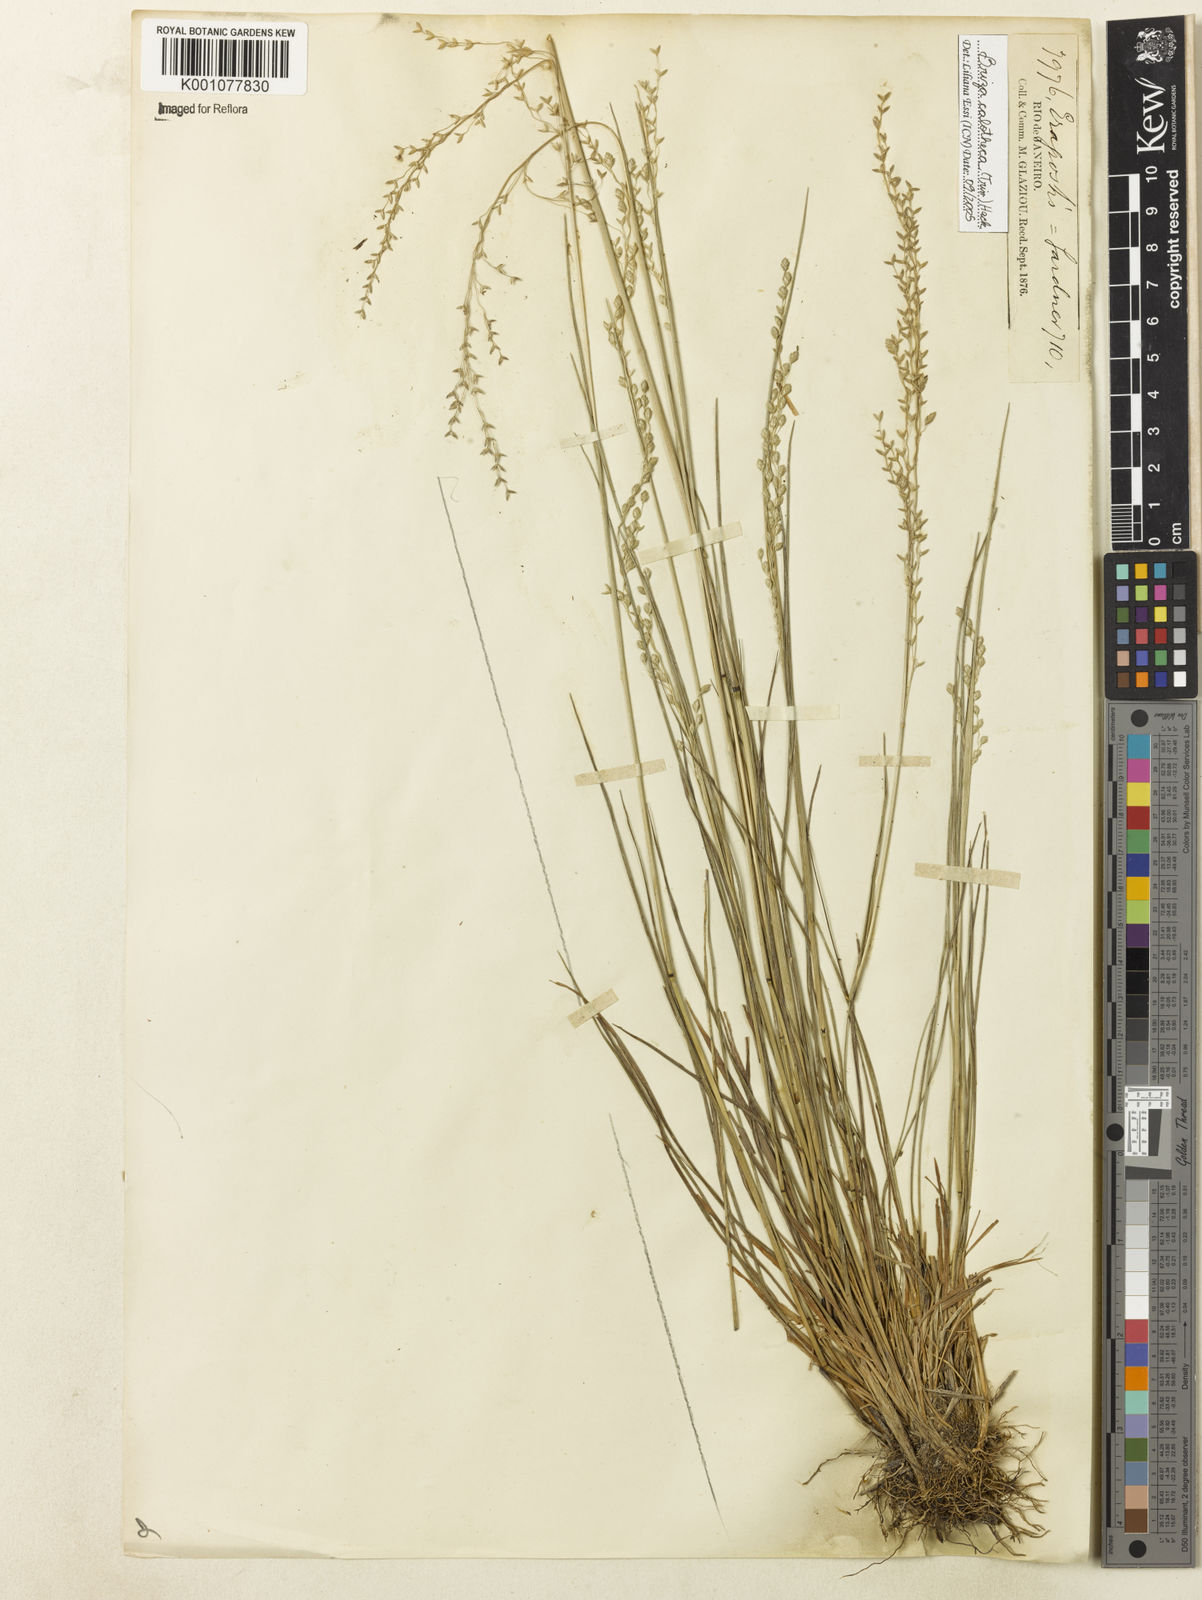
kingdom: Plantae
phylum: Tracheophyta
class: Liliopsida
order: Poales
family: Poaceae
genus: Poidium
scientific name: Poidium calotheca
